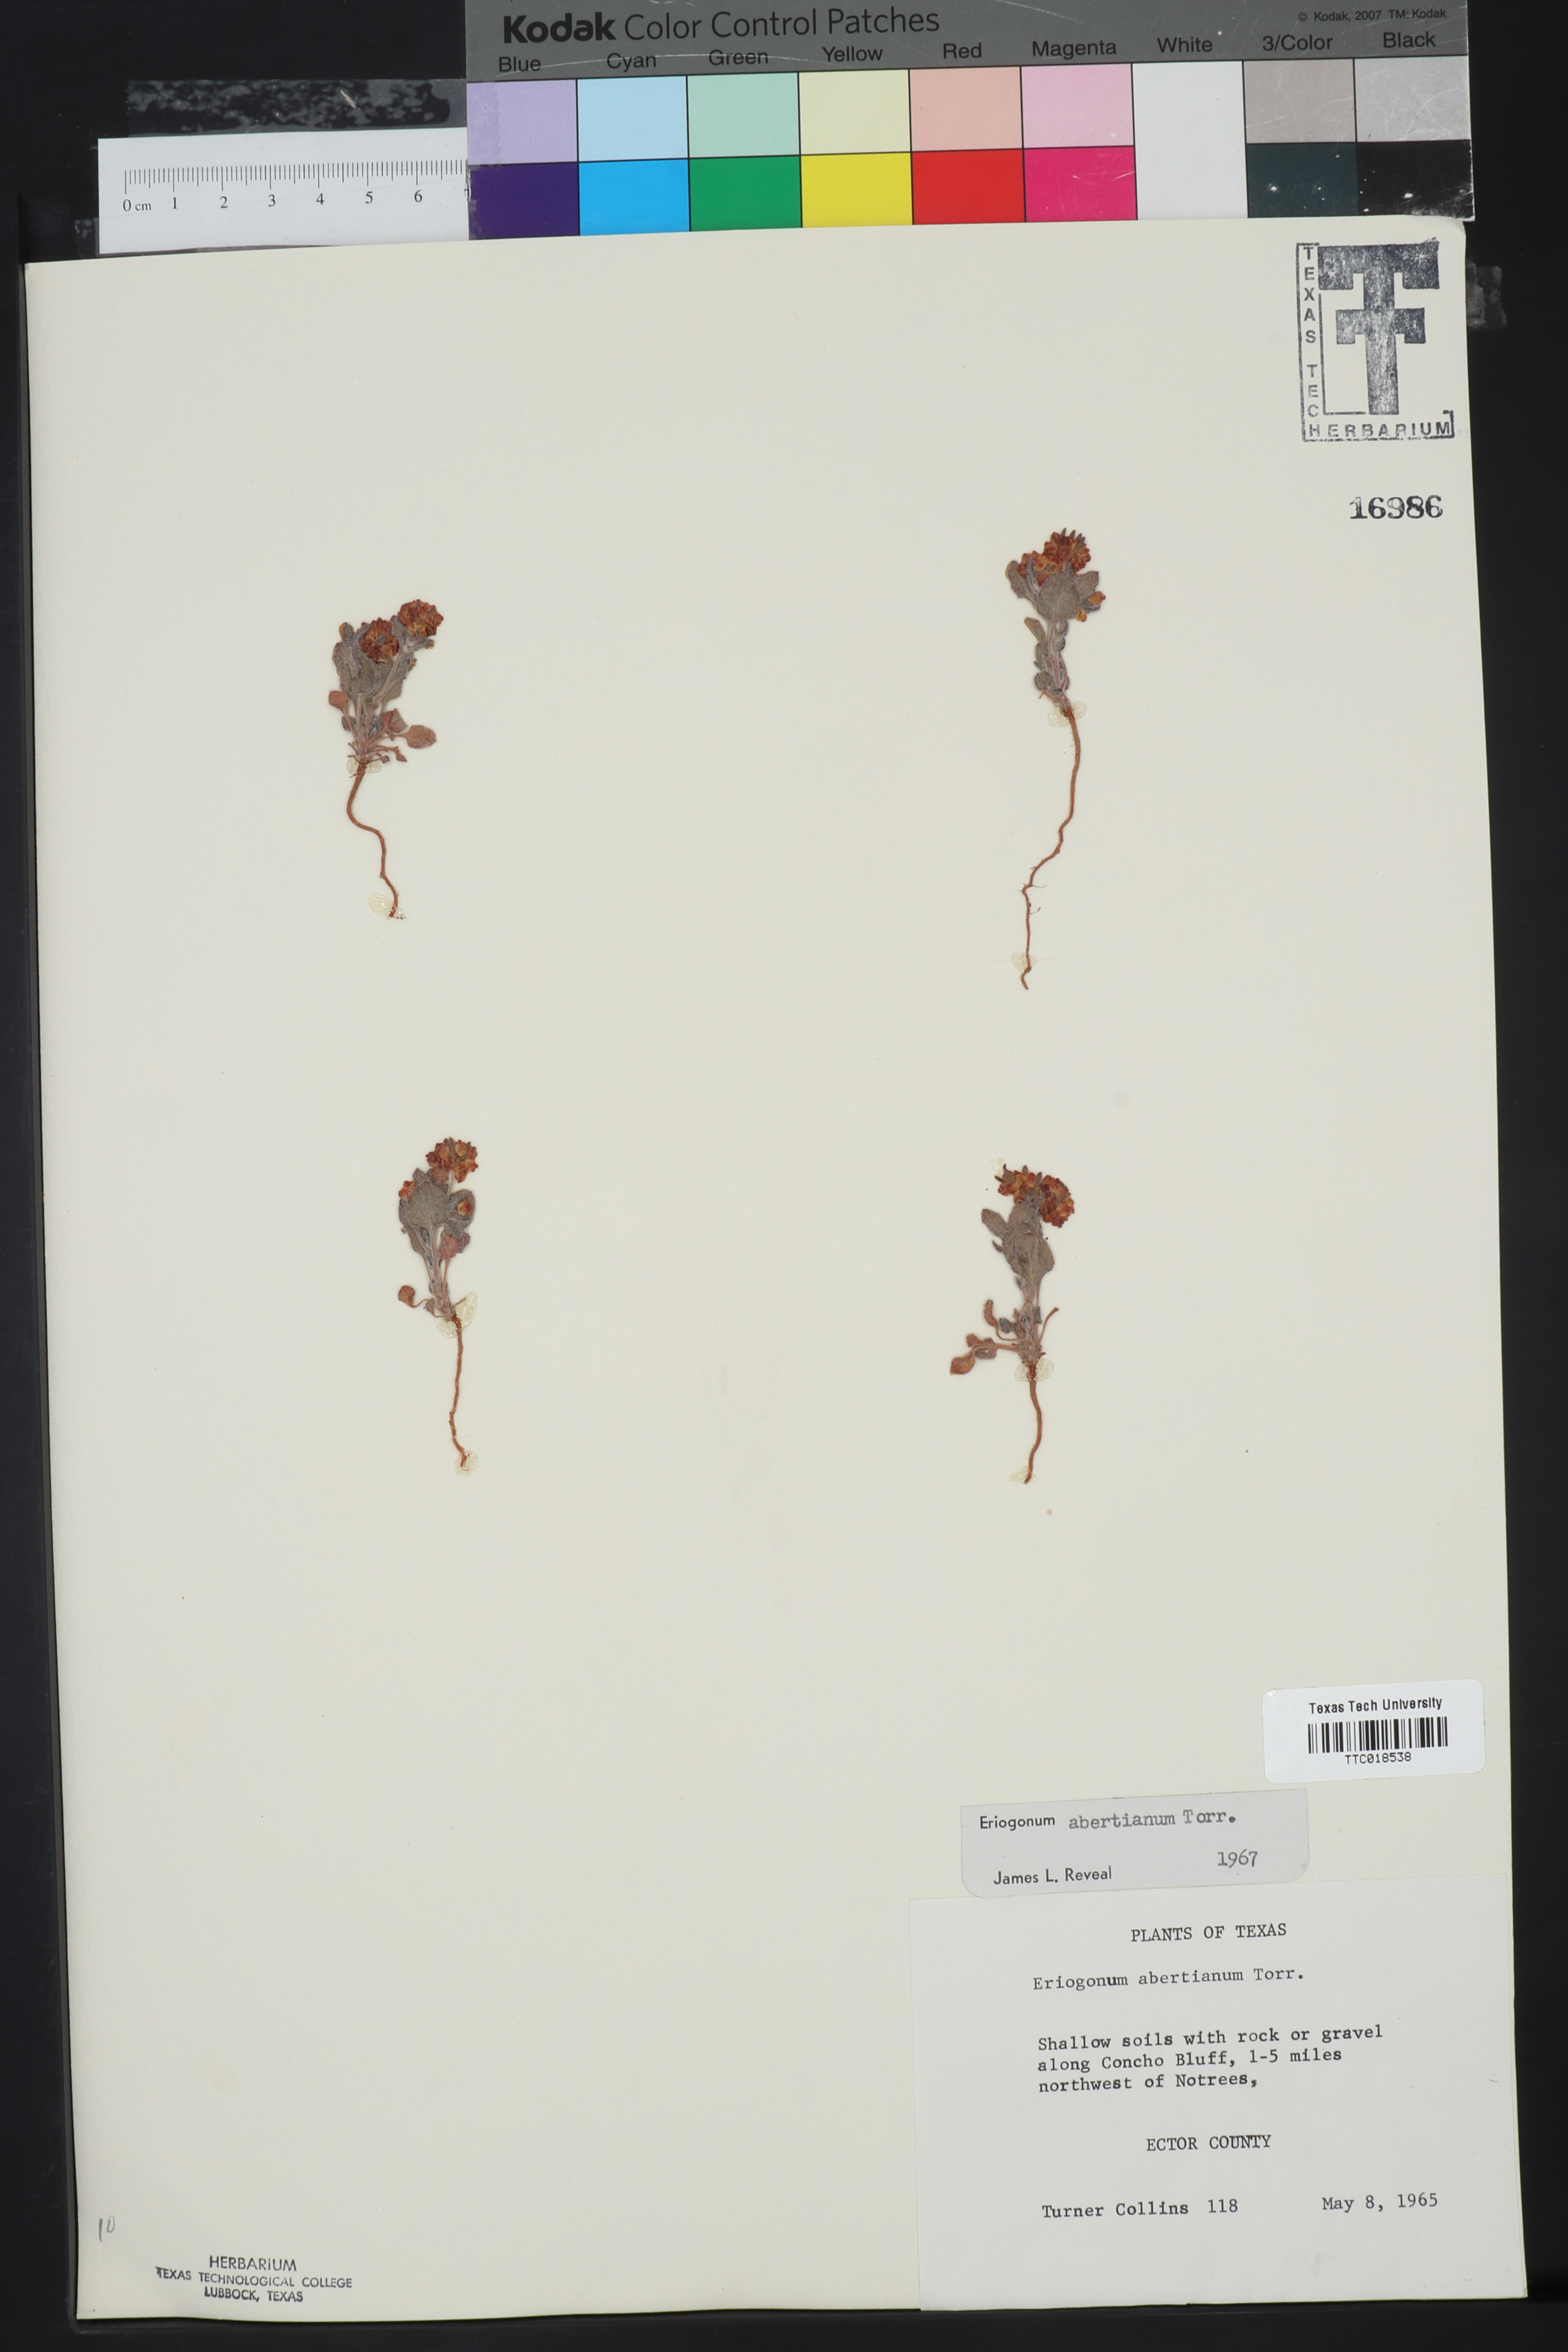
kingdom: Plantae
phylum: Tracheophyta
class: Magnoliopsida
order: Caryophyllales
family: Polygonaceae
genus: Eriogonum
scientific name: Eriogonum abertianum
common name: Abert's wild buckwheat
